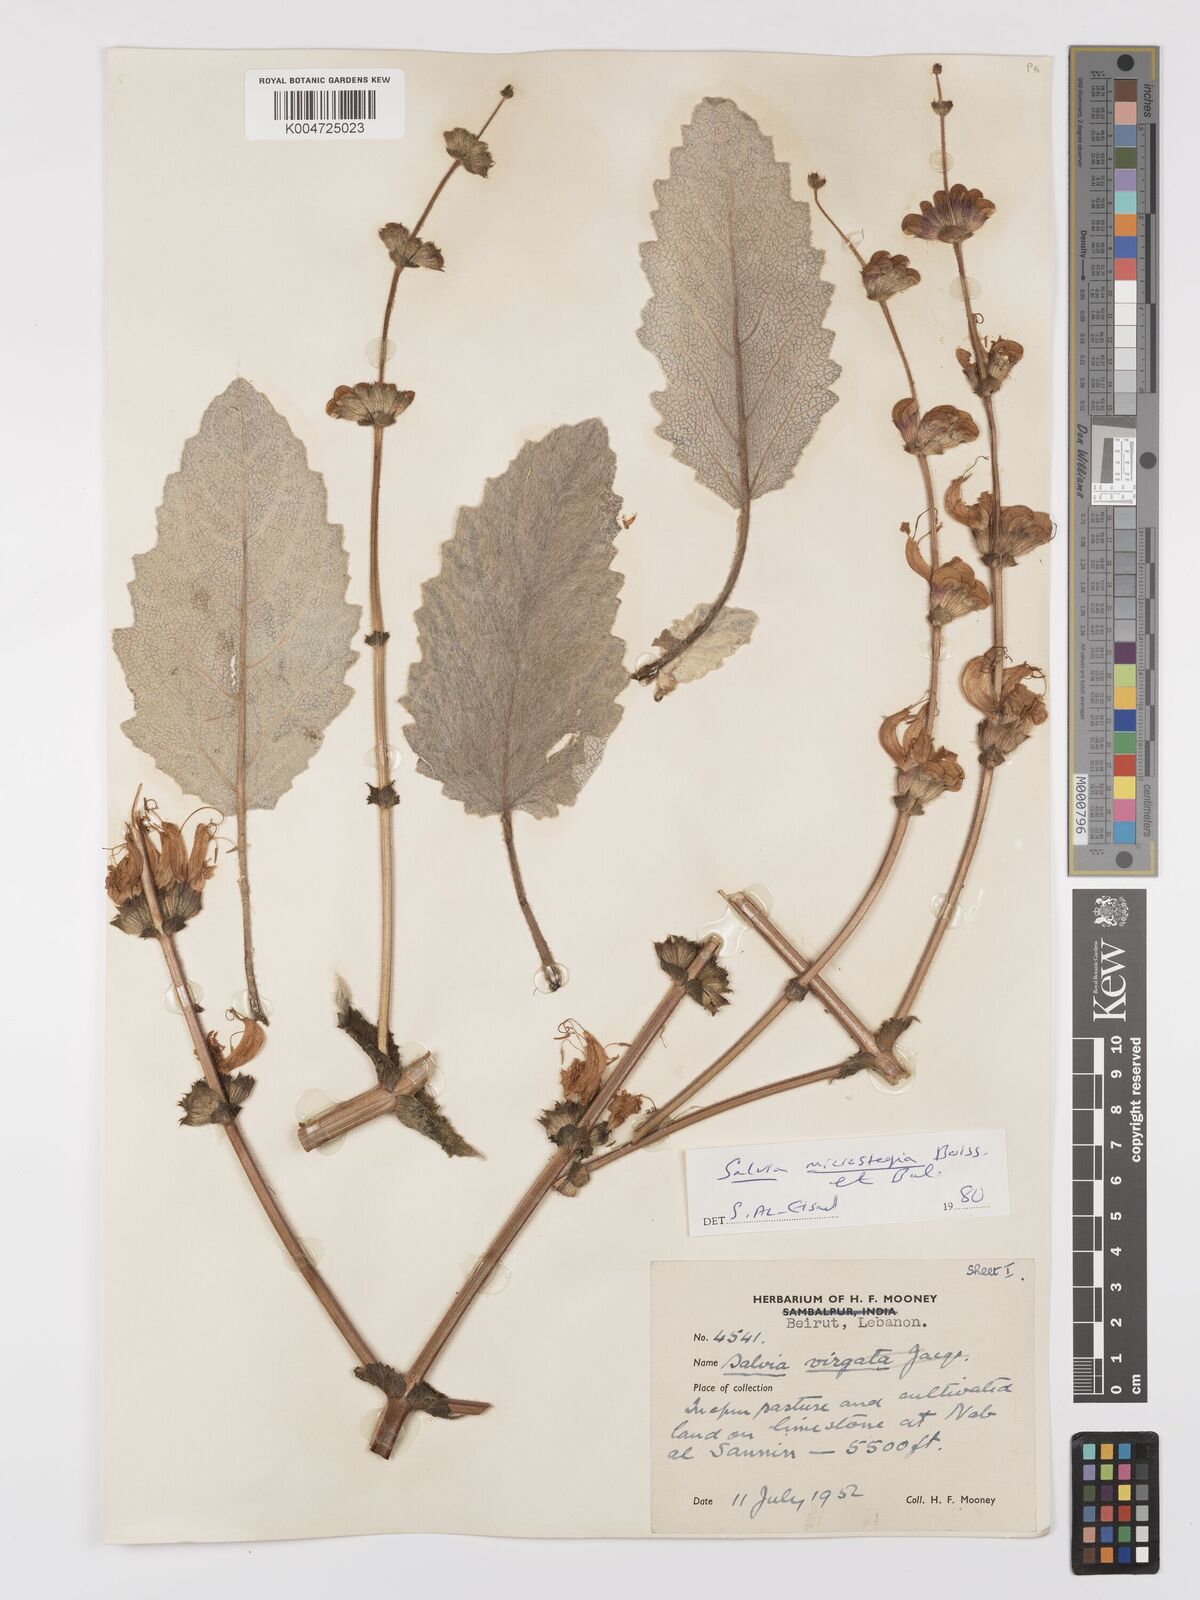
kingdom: Plantae
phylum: Tracheophyta
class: Magnoliopsida
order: Lamiales
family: Lamiaceae
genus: Salvia
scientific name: Salvia verbascifolia
